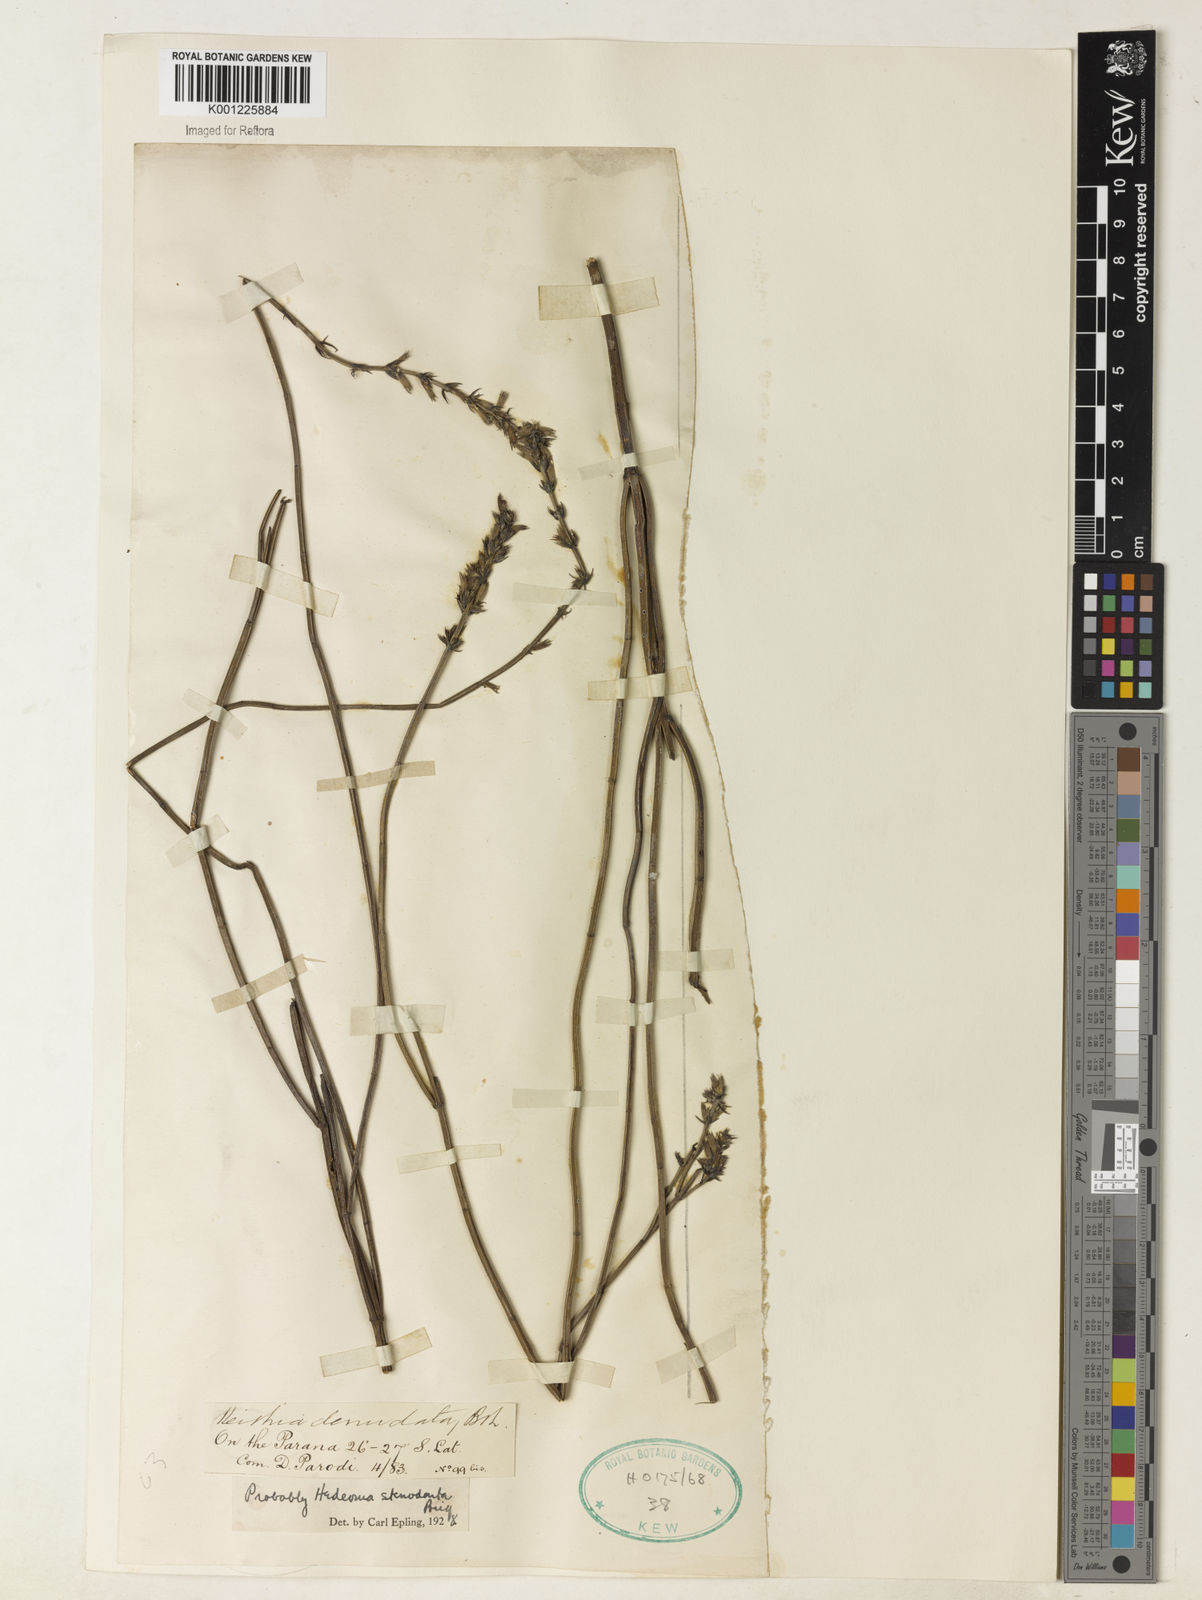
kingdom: Plantae
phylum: Tracheophyta
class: Magnoliopsida
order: Lamiales
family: Lamiaceae
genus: Rhabdocaulon
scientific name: Rhabdocaulon stenodontum
